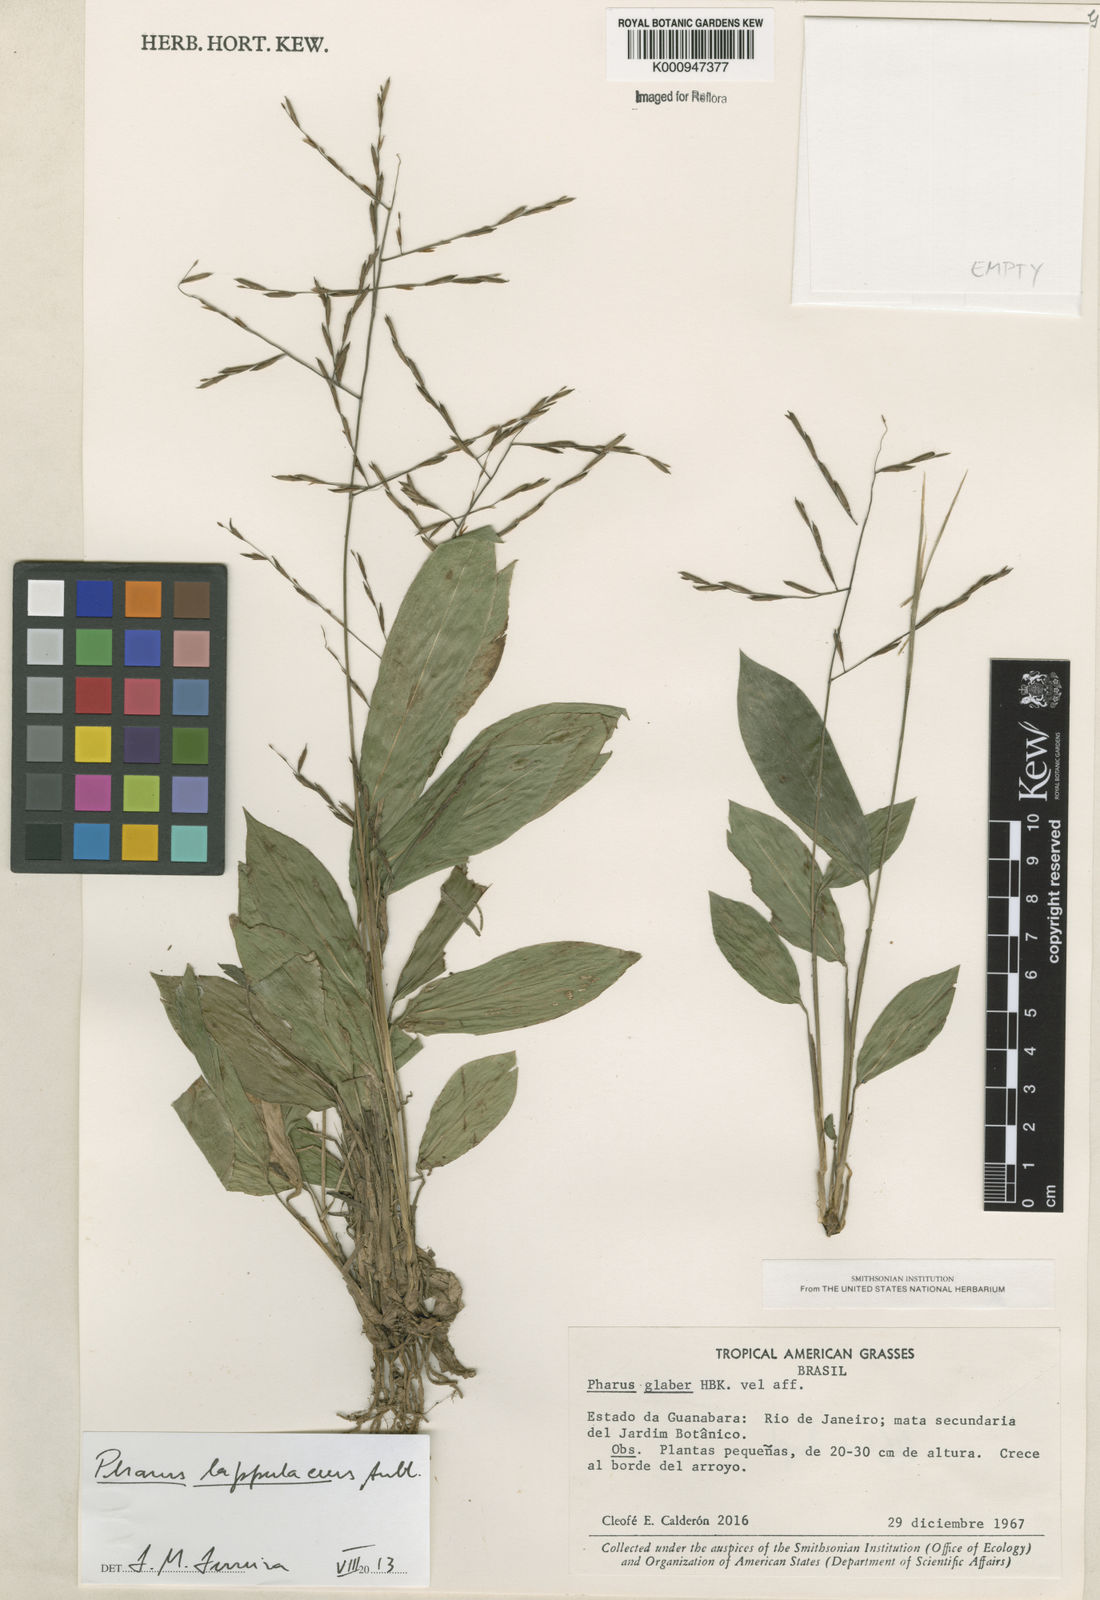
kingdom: Plantae
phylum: Tracheophyta
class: Liliopsida
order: Poales
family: Poaceae
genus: Pharus
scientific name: Pharus lappulaceus
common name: Creeping leafstalk grass
